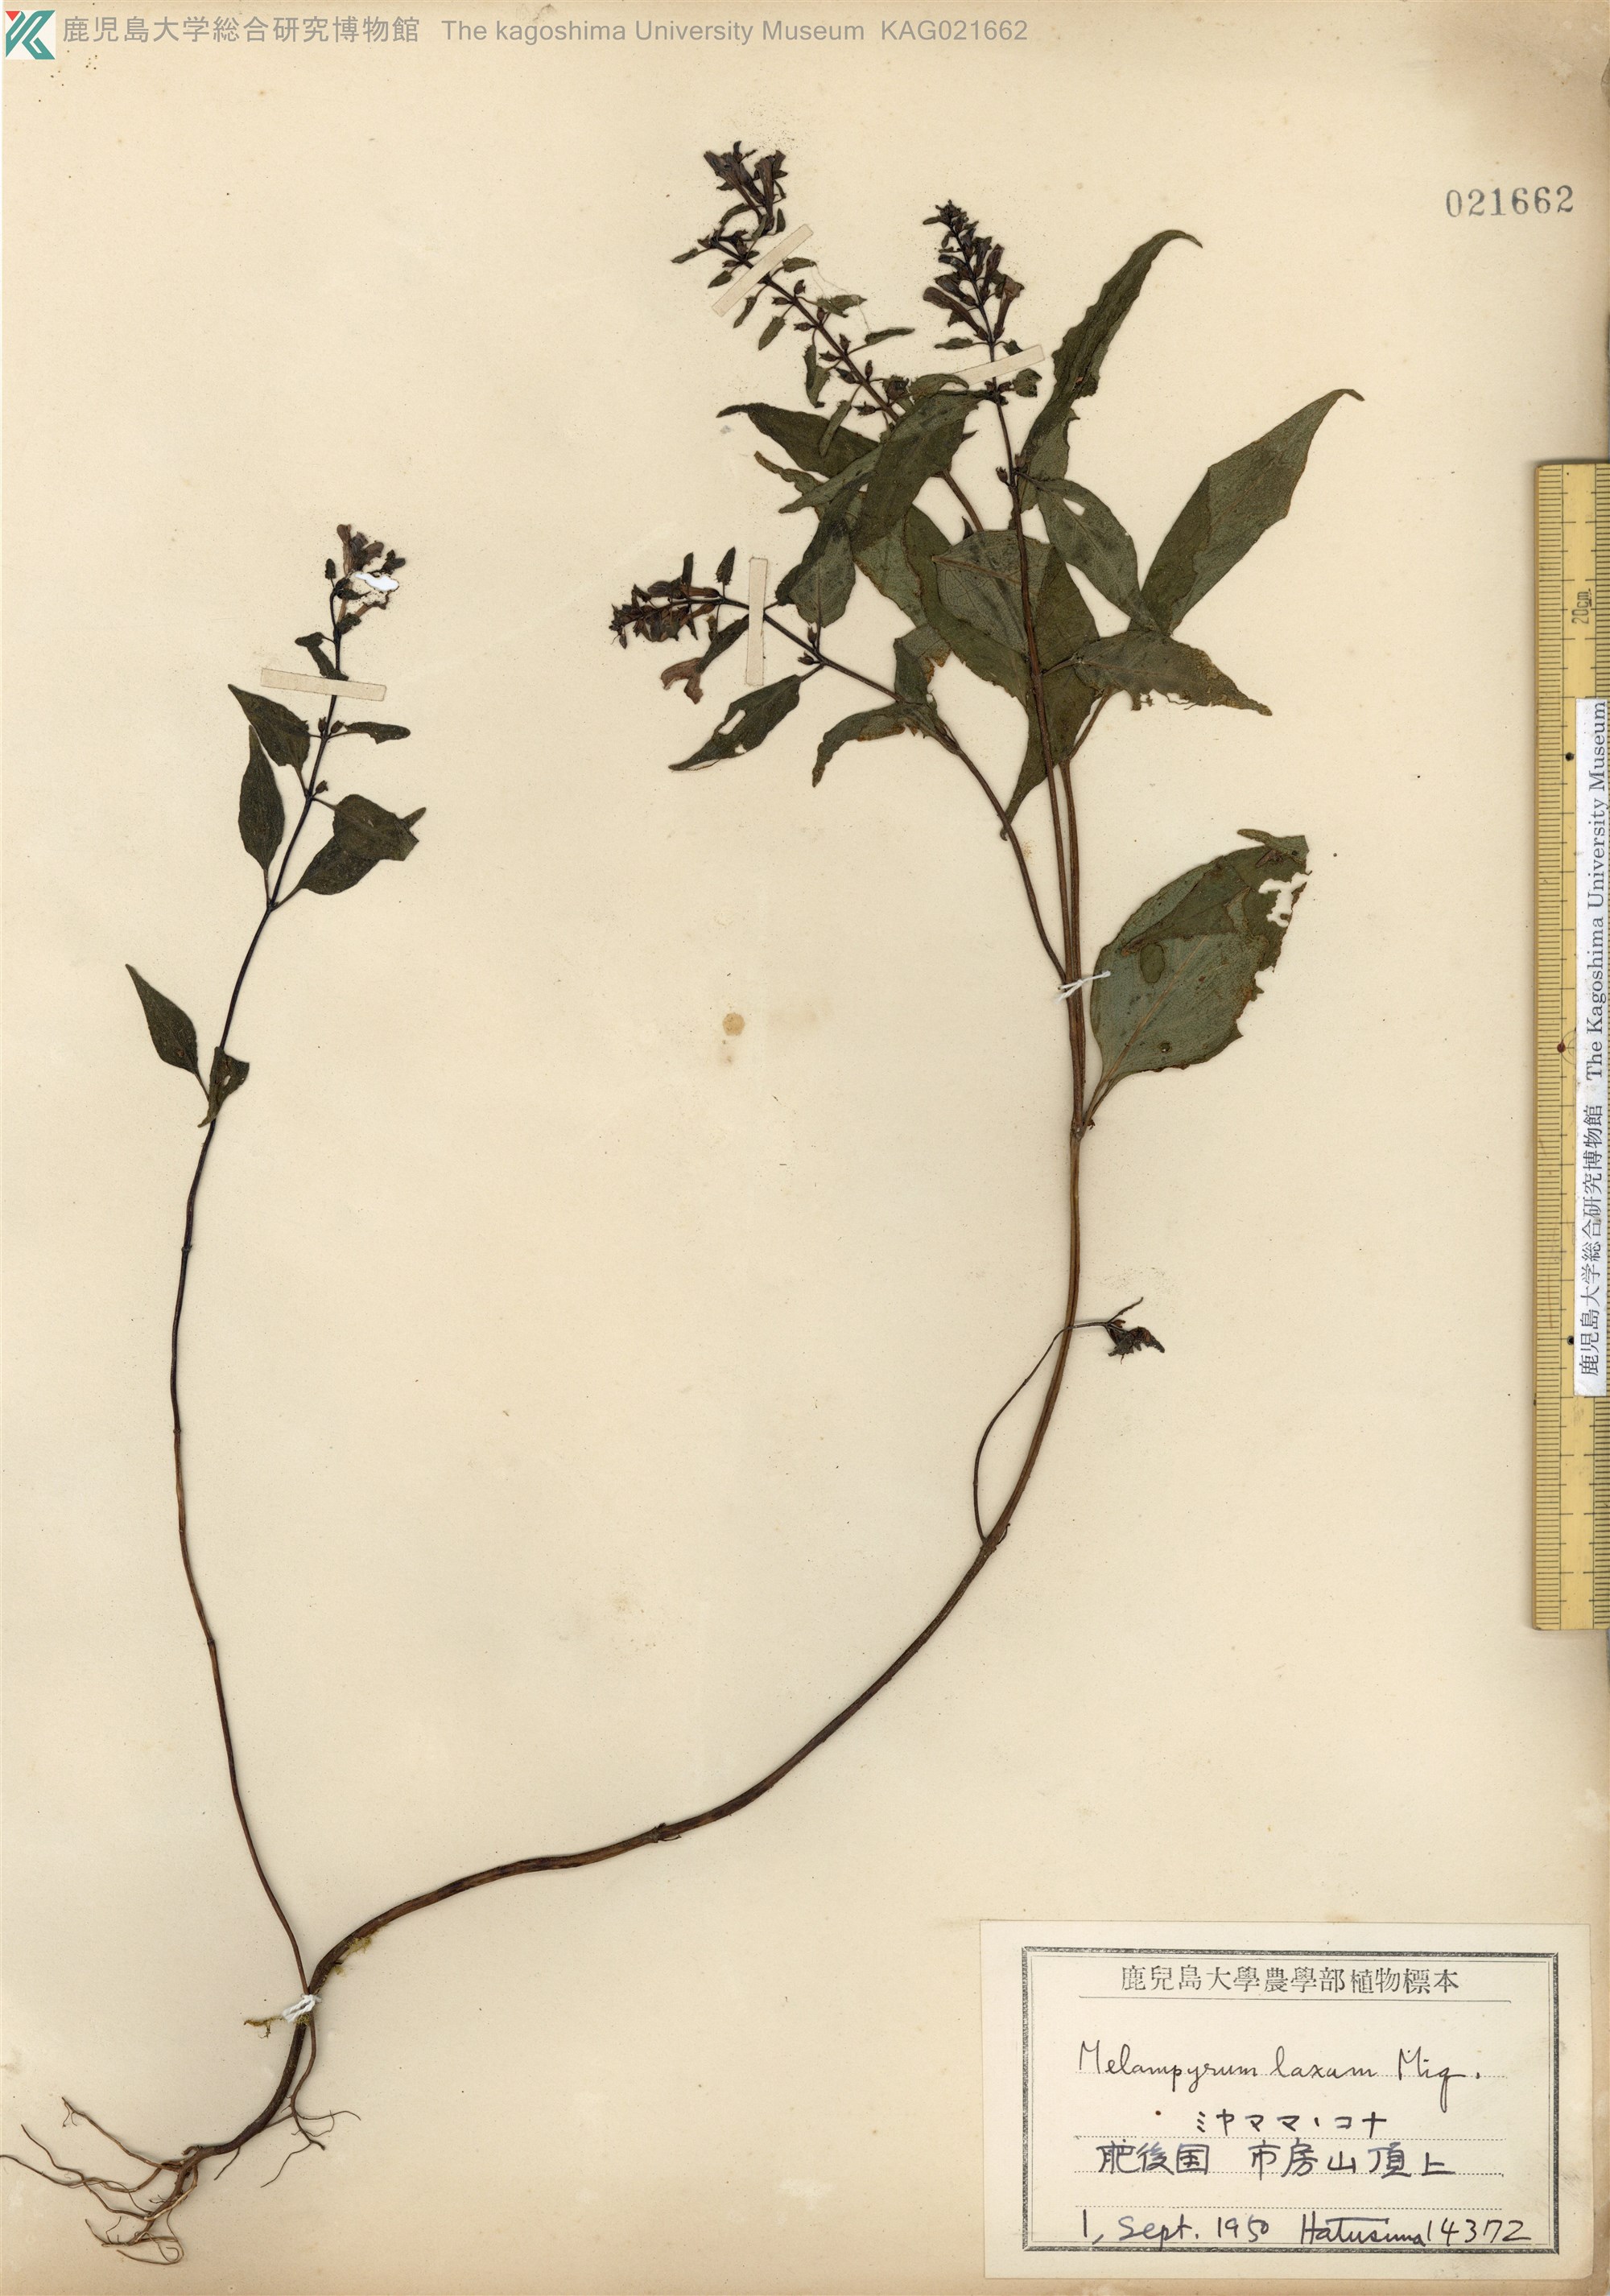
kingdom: Plantae
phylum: Tracheophyta
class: Magnoliopsida
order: Lamiales
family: Orobanchaceae
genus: Melampyrum
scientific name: Melampyrum laxum
